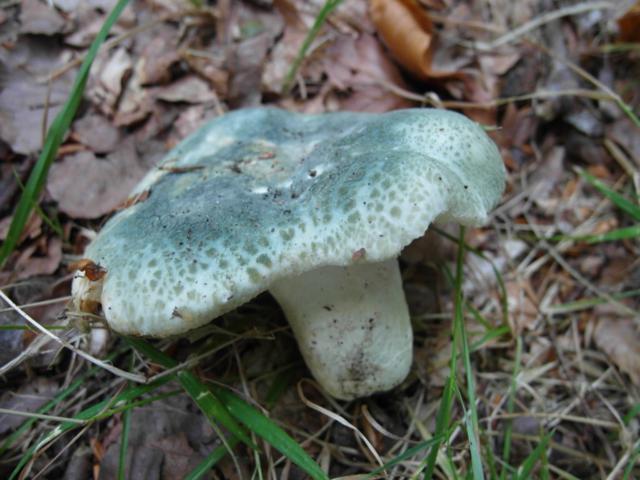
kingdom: Fungi
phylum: Basidiomycota
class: Agaricomycetes
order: Russulales
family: Russulaceae
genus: Russula
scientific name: Russula virescens
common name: spanskgrøn skørhat
